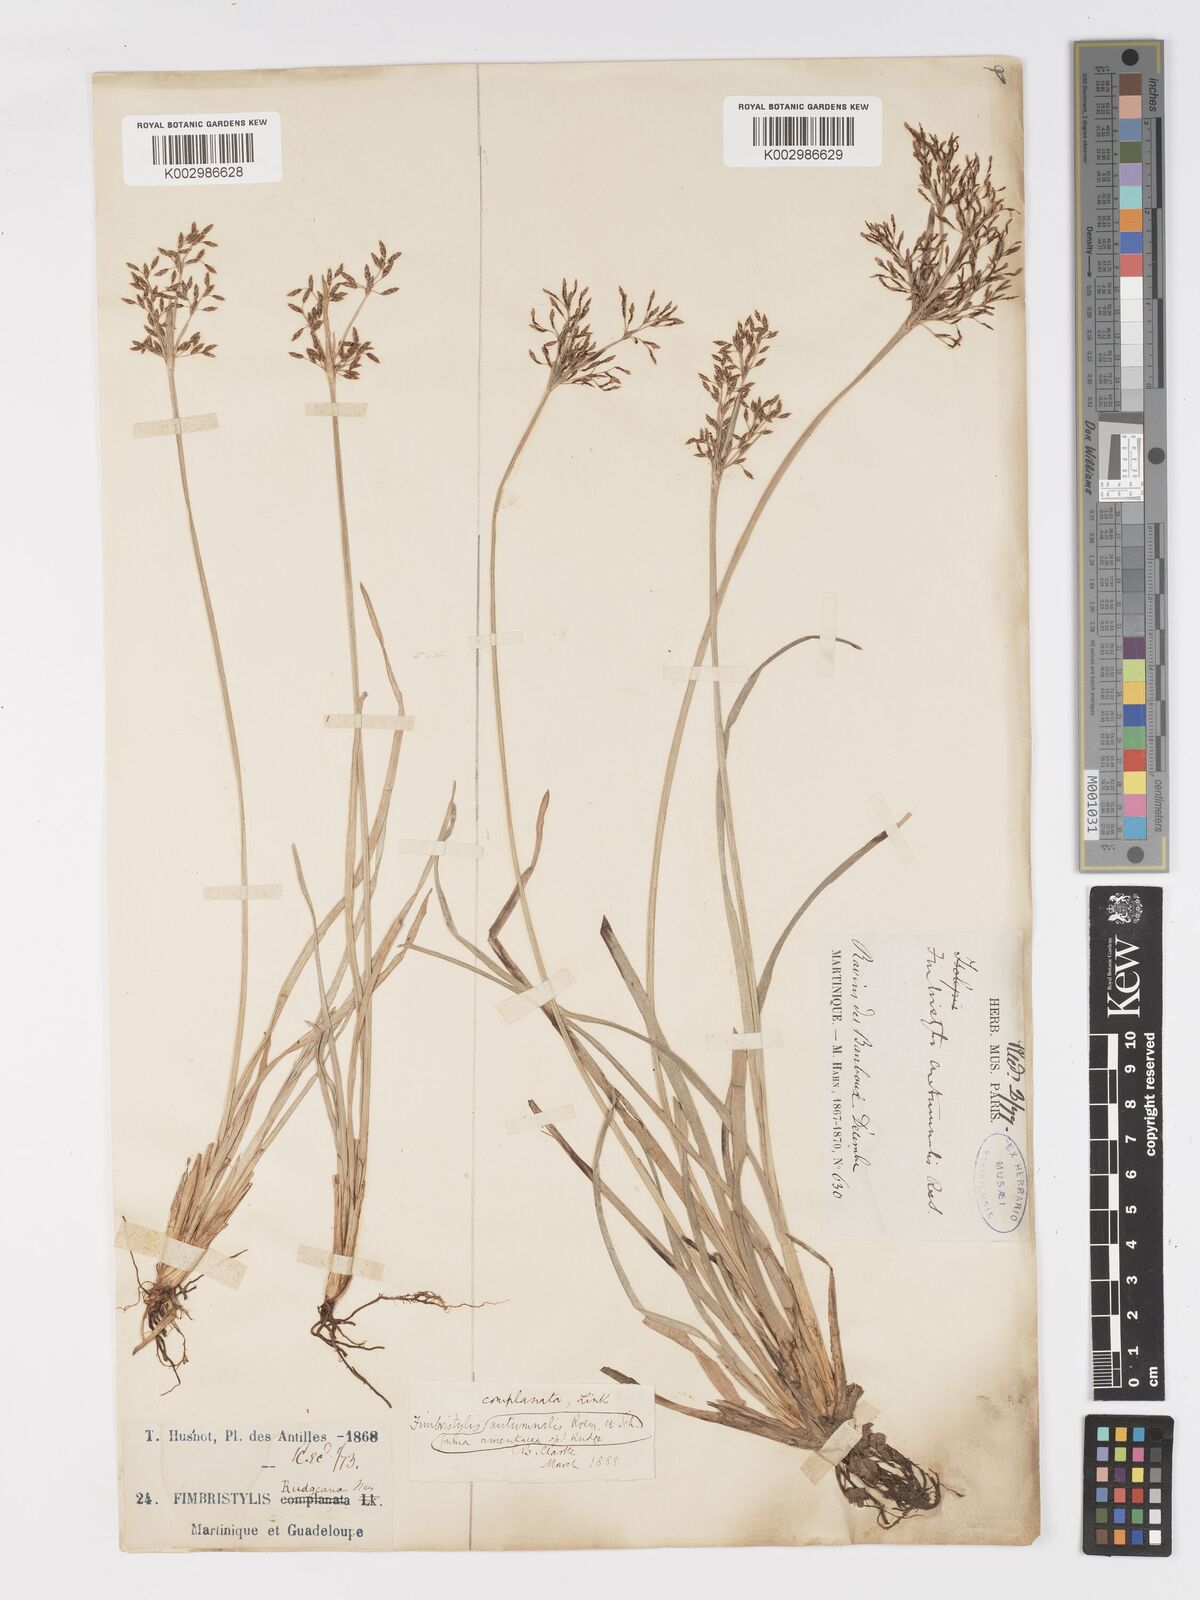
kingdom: Plantae
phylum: Tracheophyta
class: Liliopsida
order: Poales
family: Cyperaceae
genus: Fimbristylis
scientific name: Fimbristylis complanata
